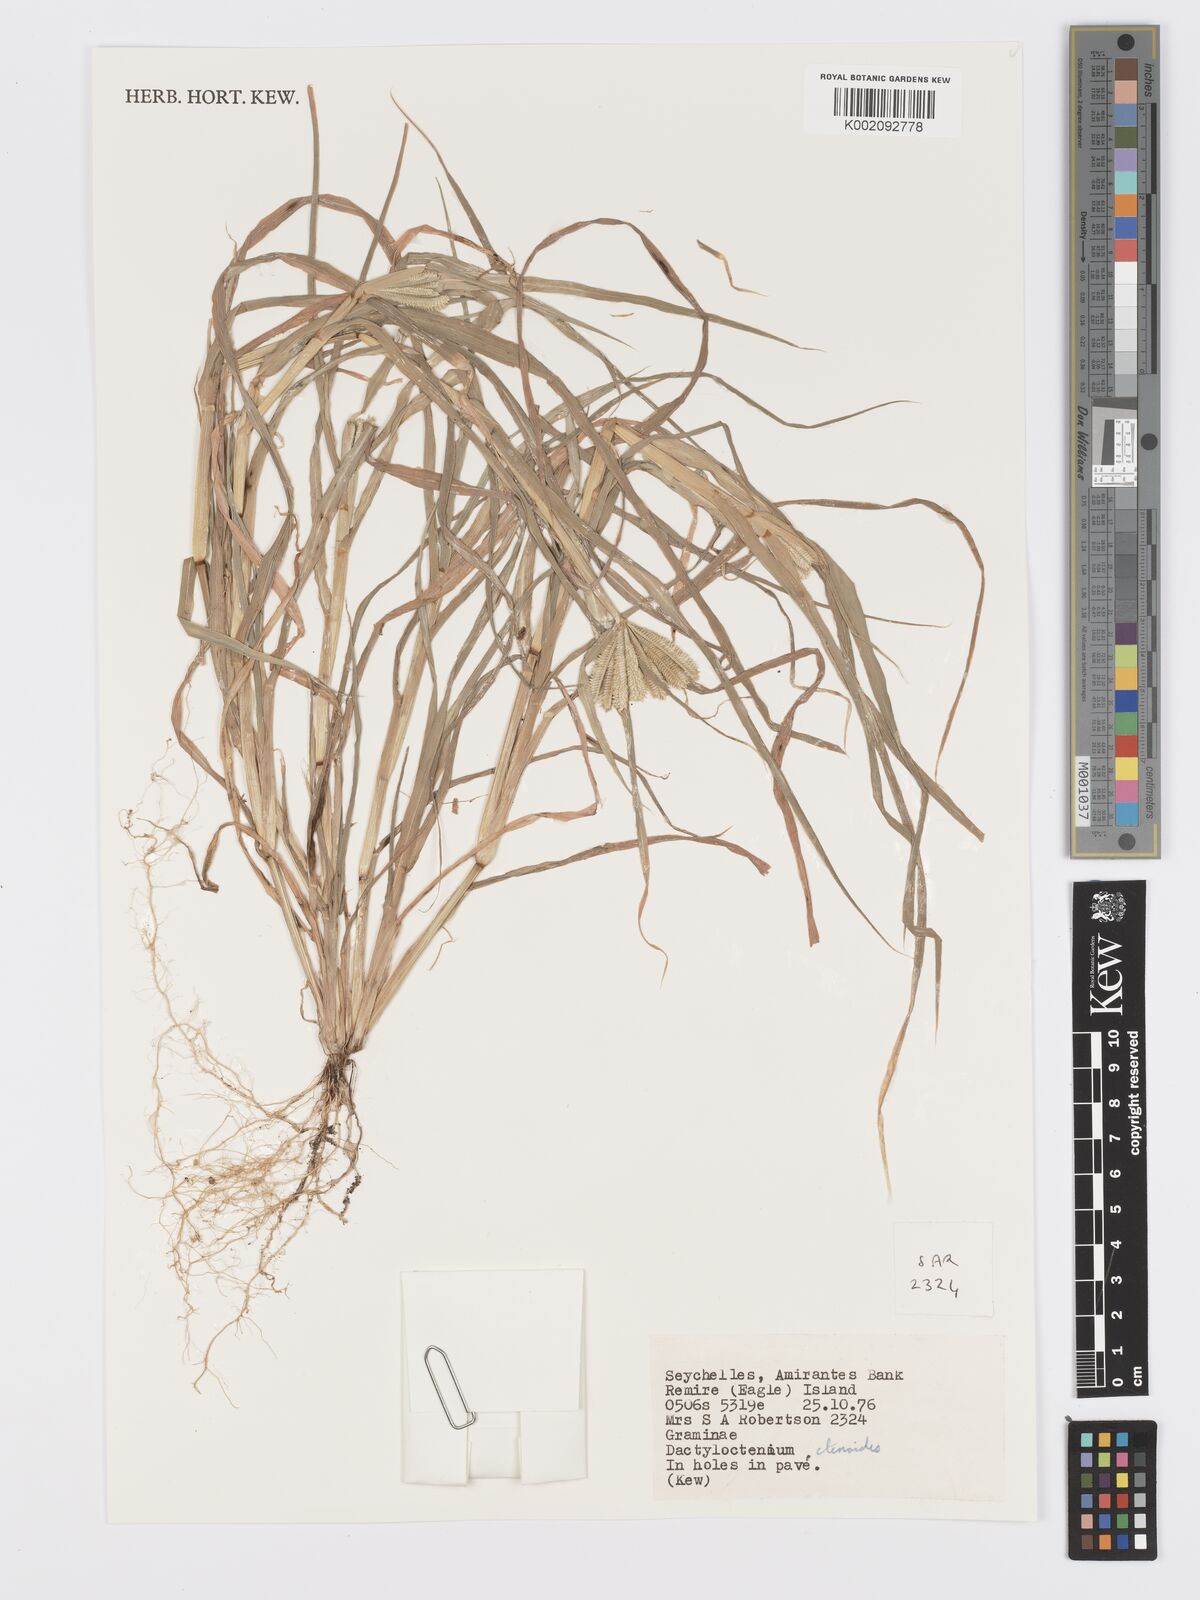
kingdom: Plantae
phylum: Tracheophyta
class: Liliopsida
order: Poales
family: Poaceae
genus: Dactyloctenium
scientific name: Dactyloctenium ctenoides
